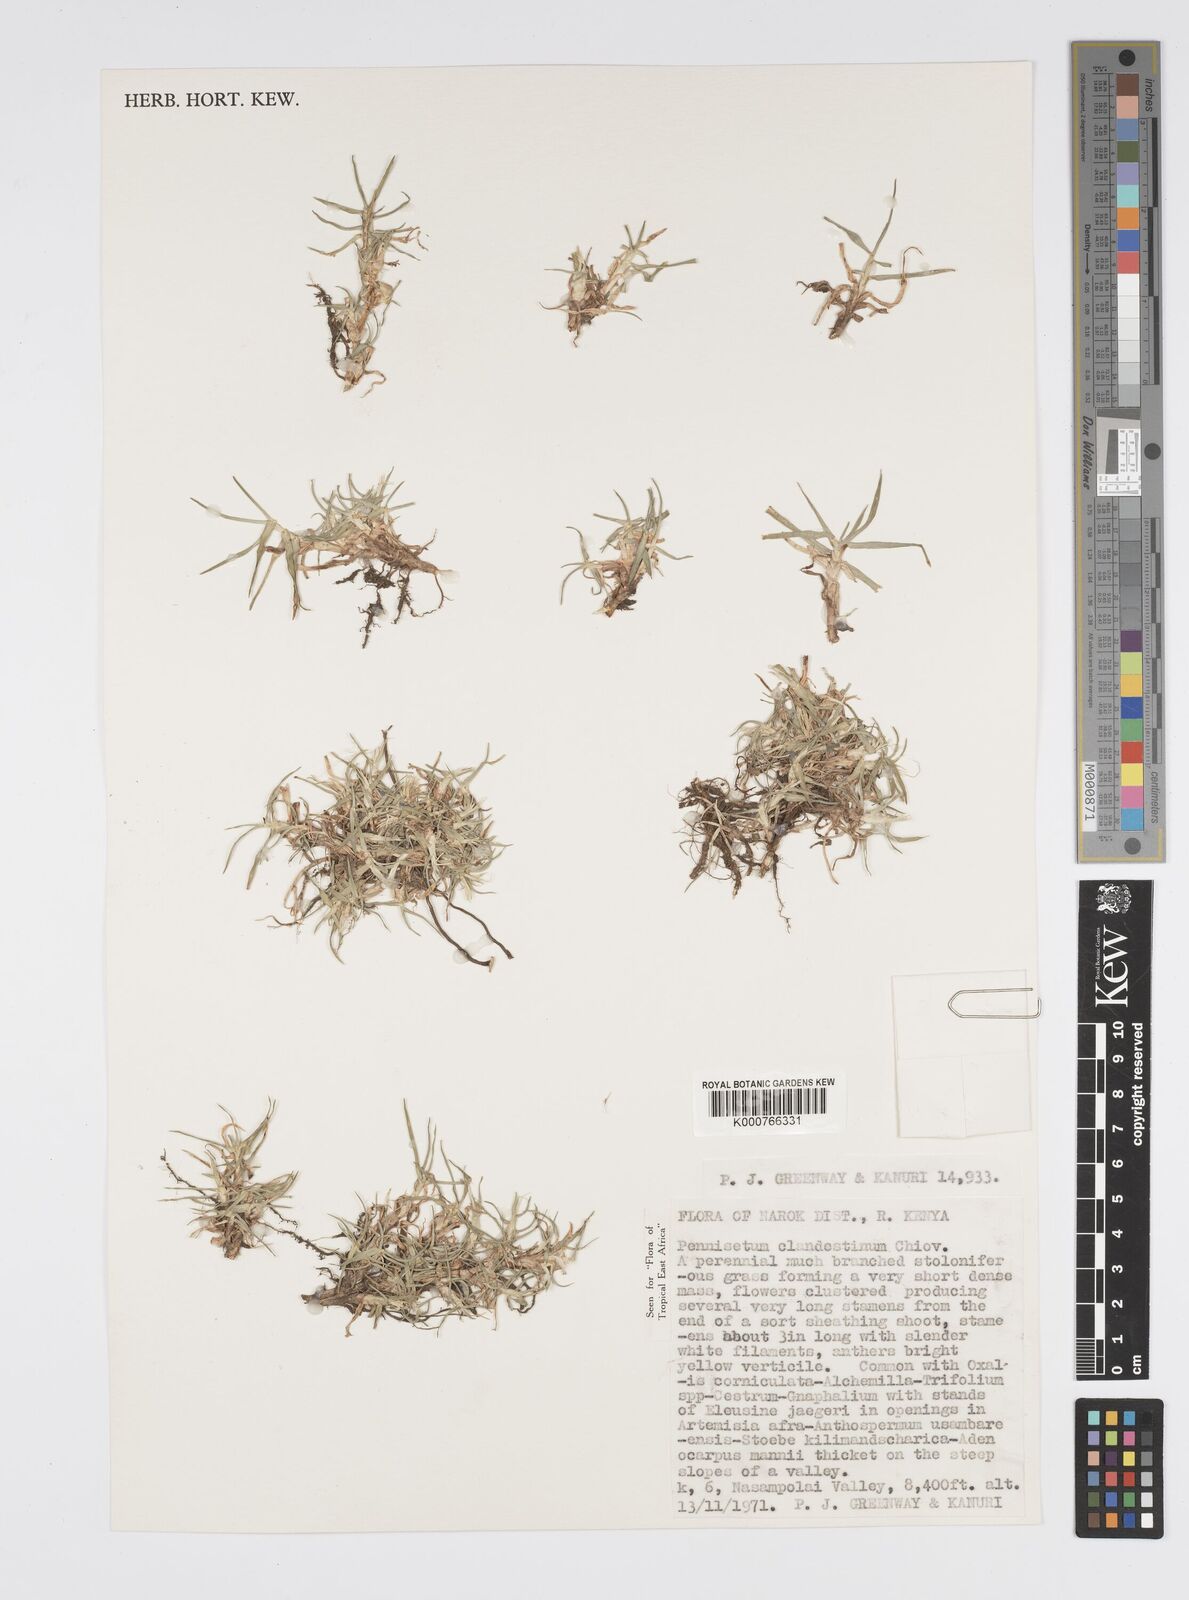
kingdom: Plantae
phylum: Tracheophyta
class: Liliopsida
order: Poales
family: Poaceae
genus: Cenchrus
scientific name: Cenchrus clandestinus
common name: Kikuyugrass
